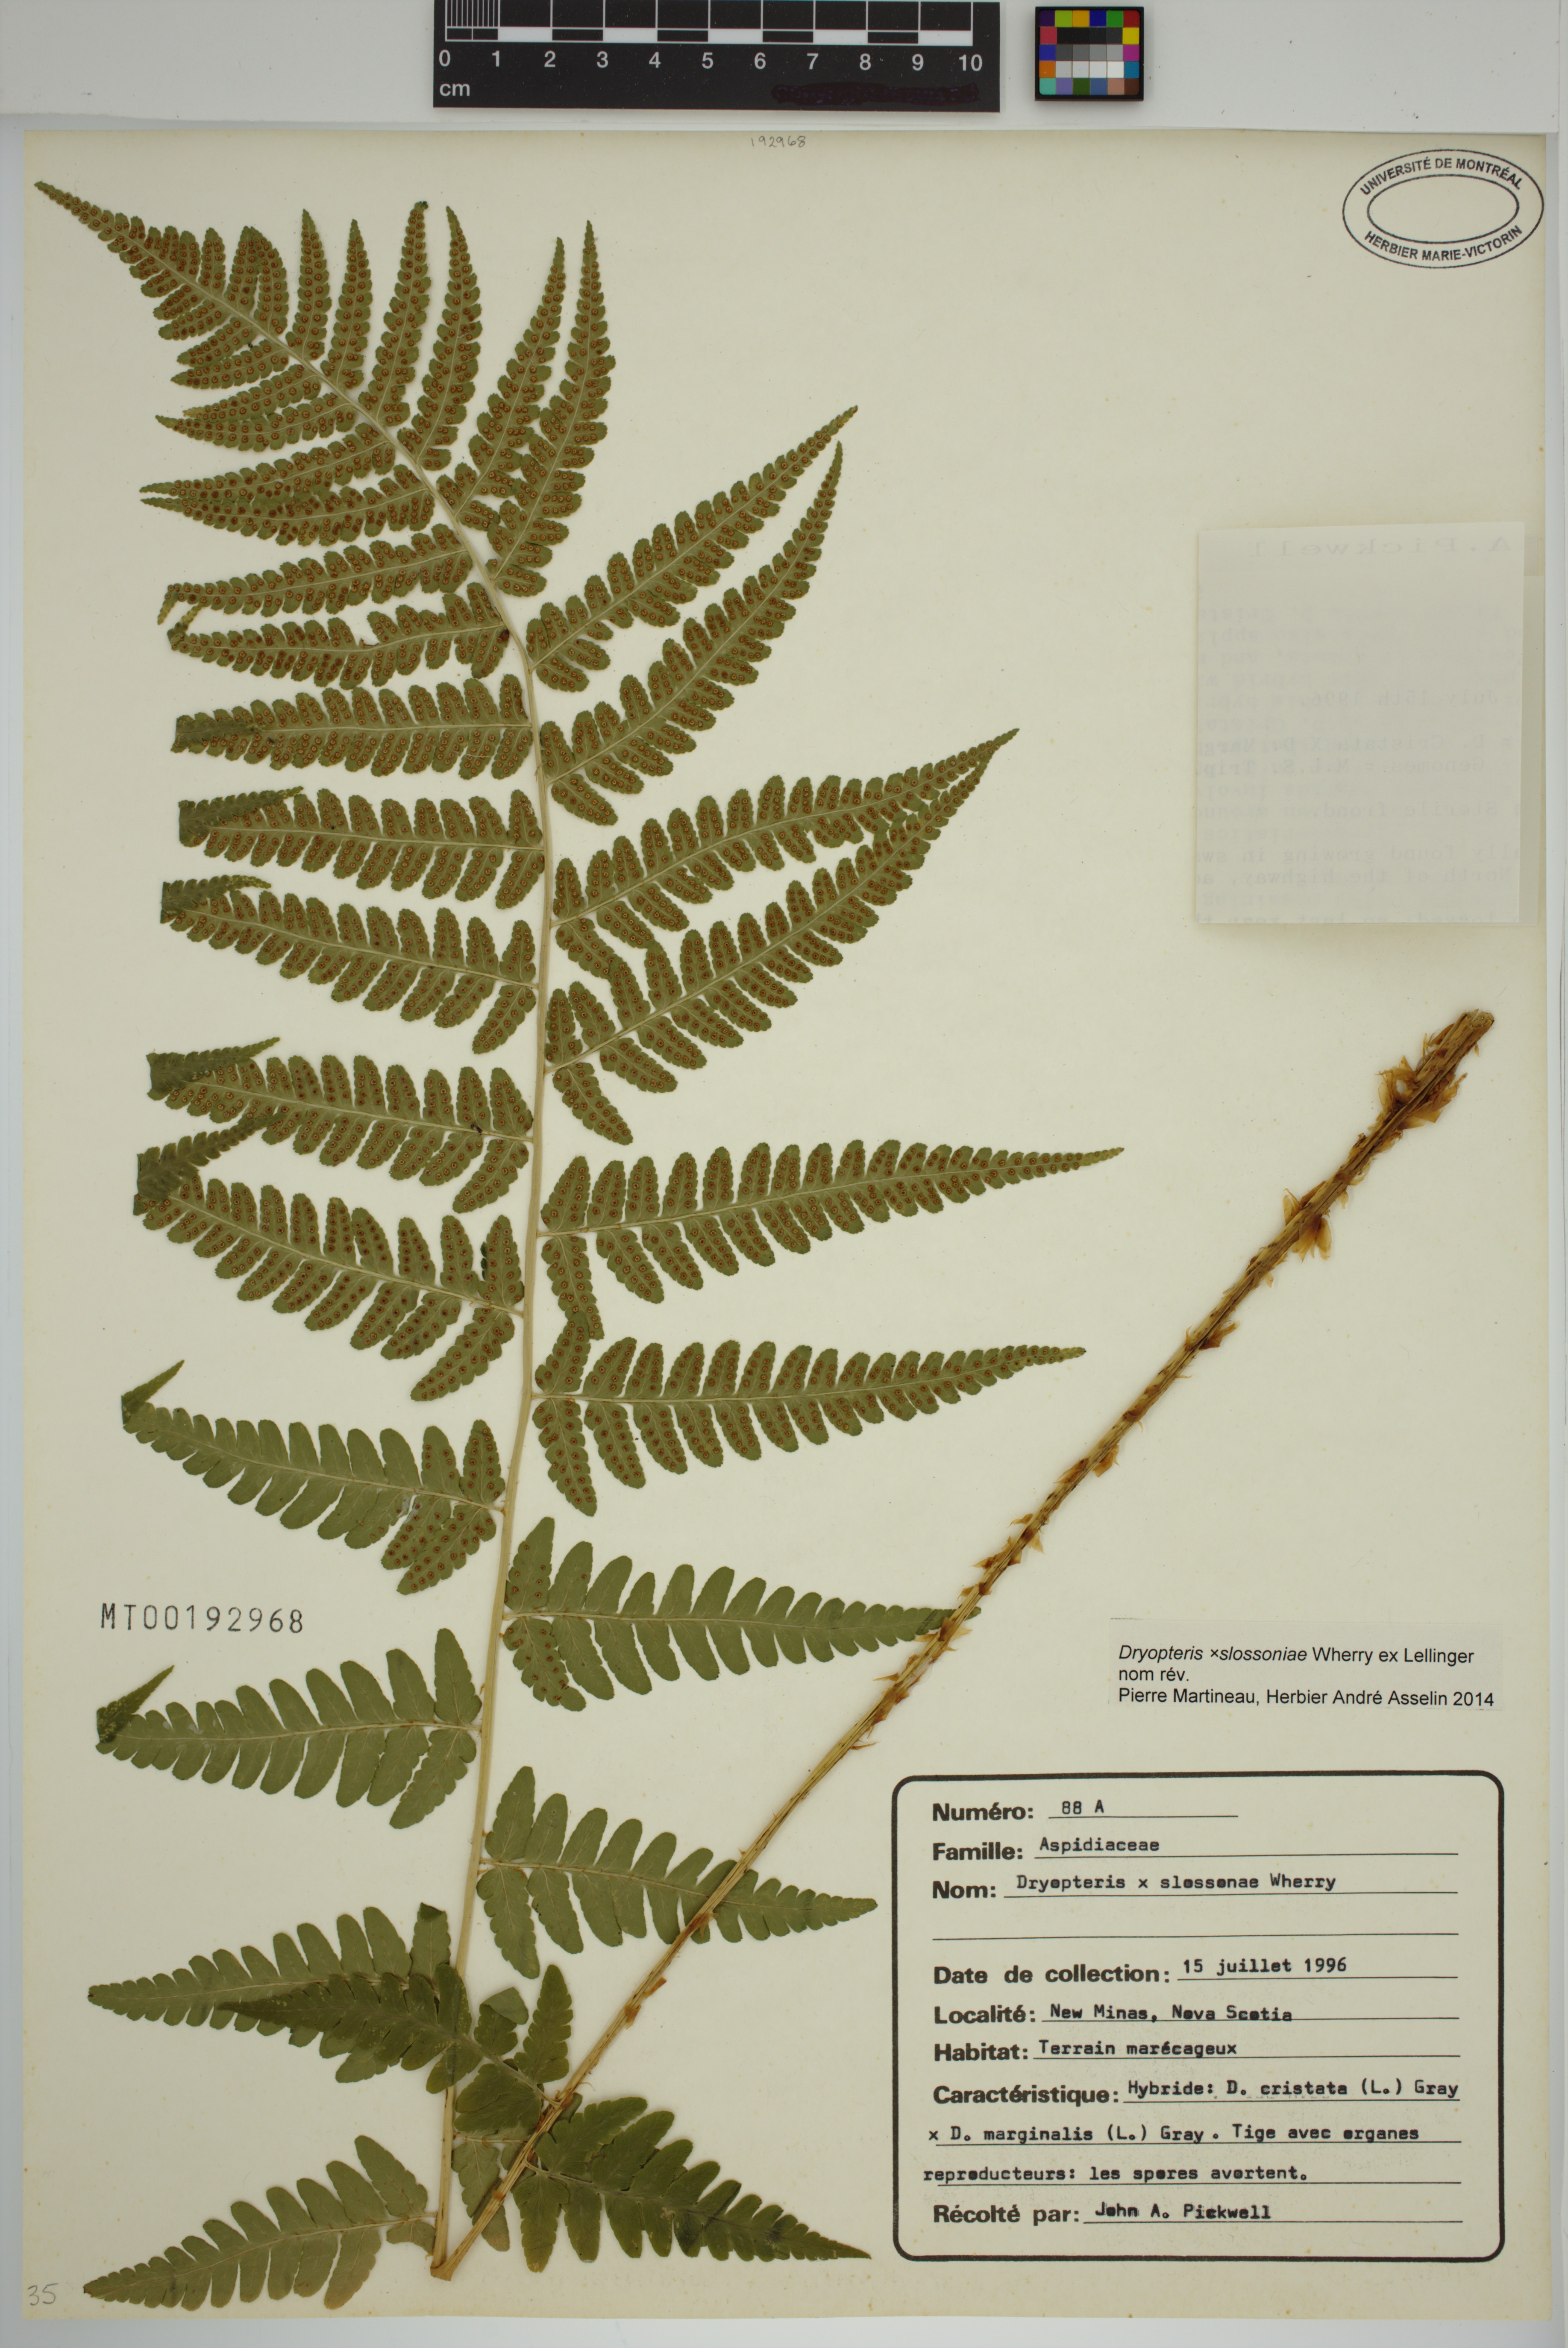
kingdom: Plantae
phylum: Tracheophyta
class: Polypodiopsida
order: Polypodiales
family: Dryopteridaceae
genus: Dryopteris
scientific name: Dryopteris slossoniae
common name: Miss slosson's wood fern
